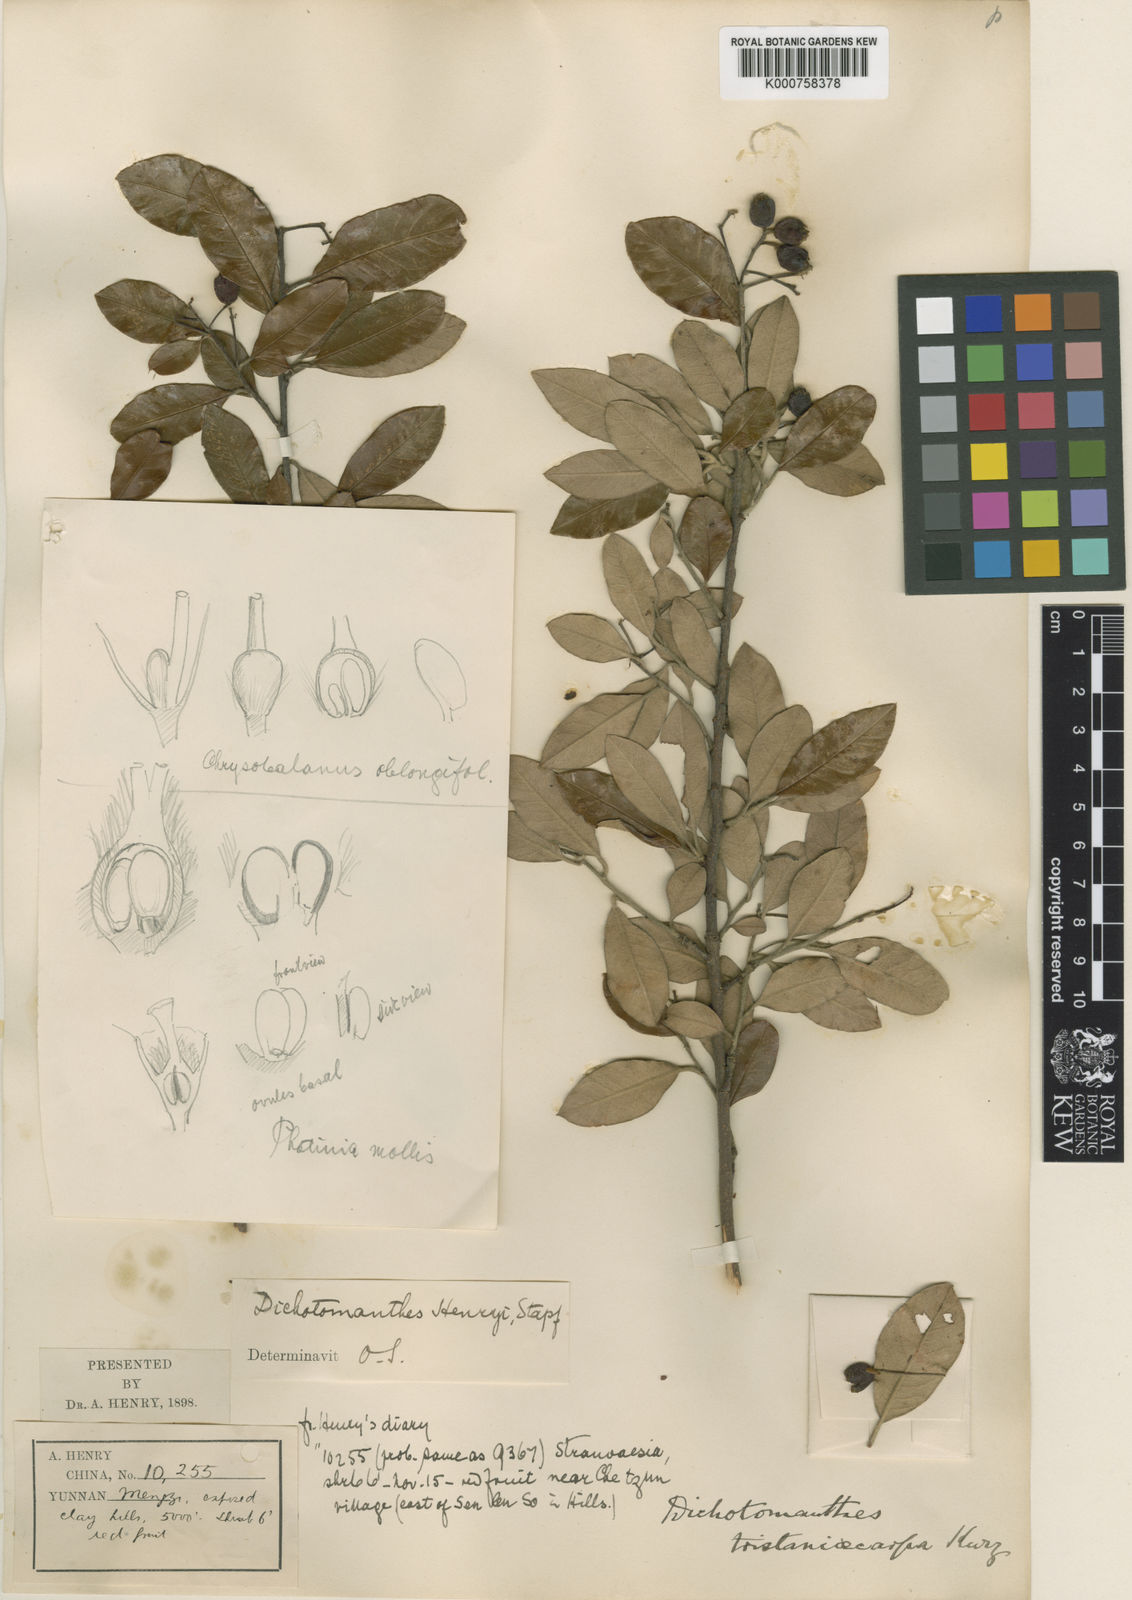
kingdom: Plantae
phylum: Tracheophyta
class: Magnoliopsida
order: Rosales
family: Rosaceae
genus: Dichotomanthes
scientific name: Dichotomanthes
